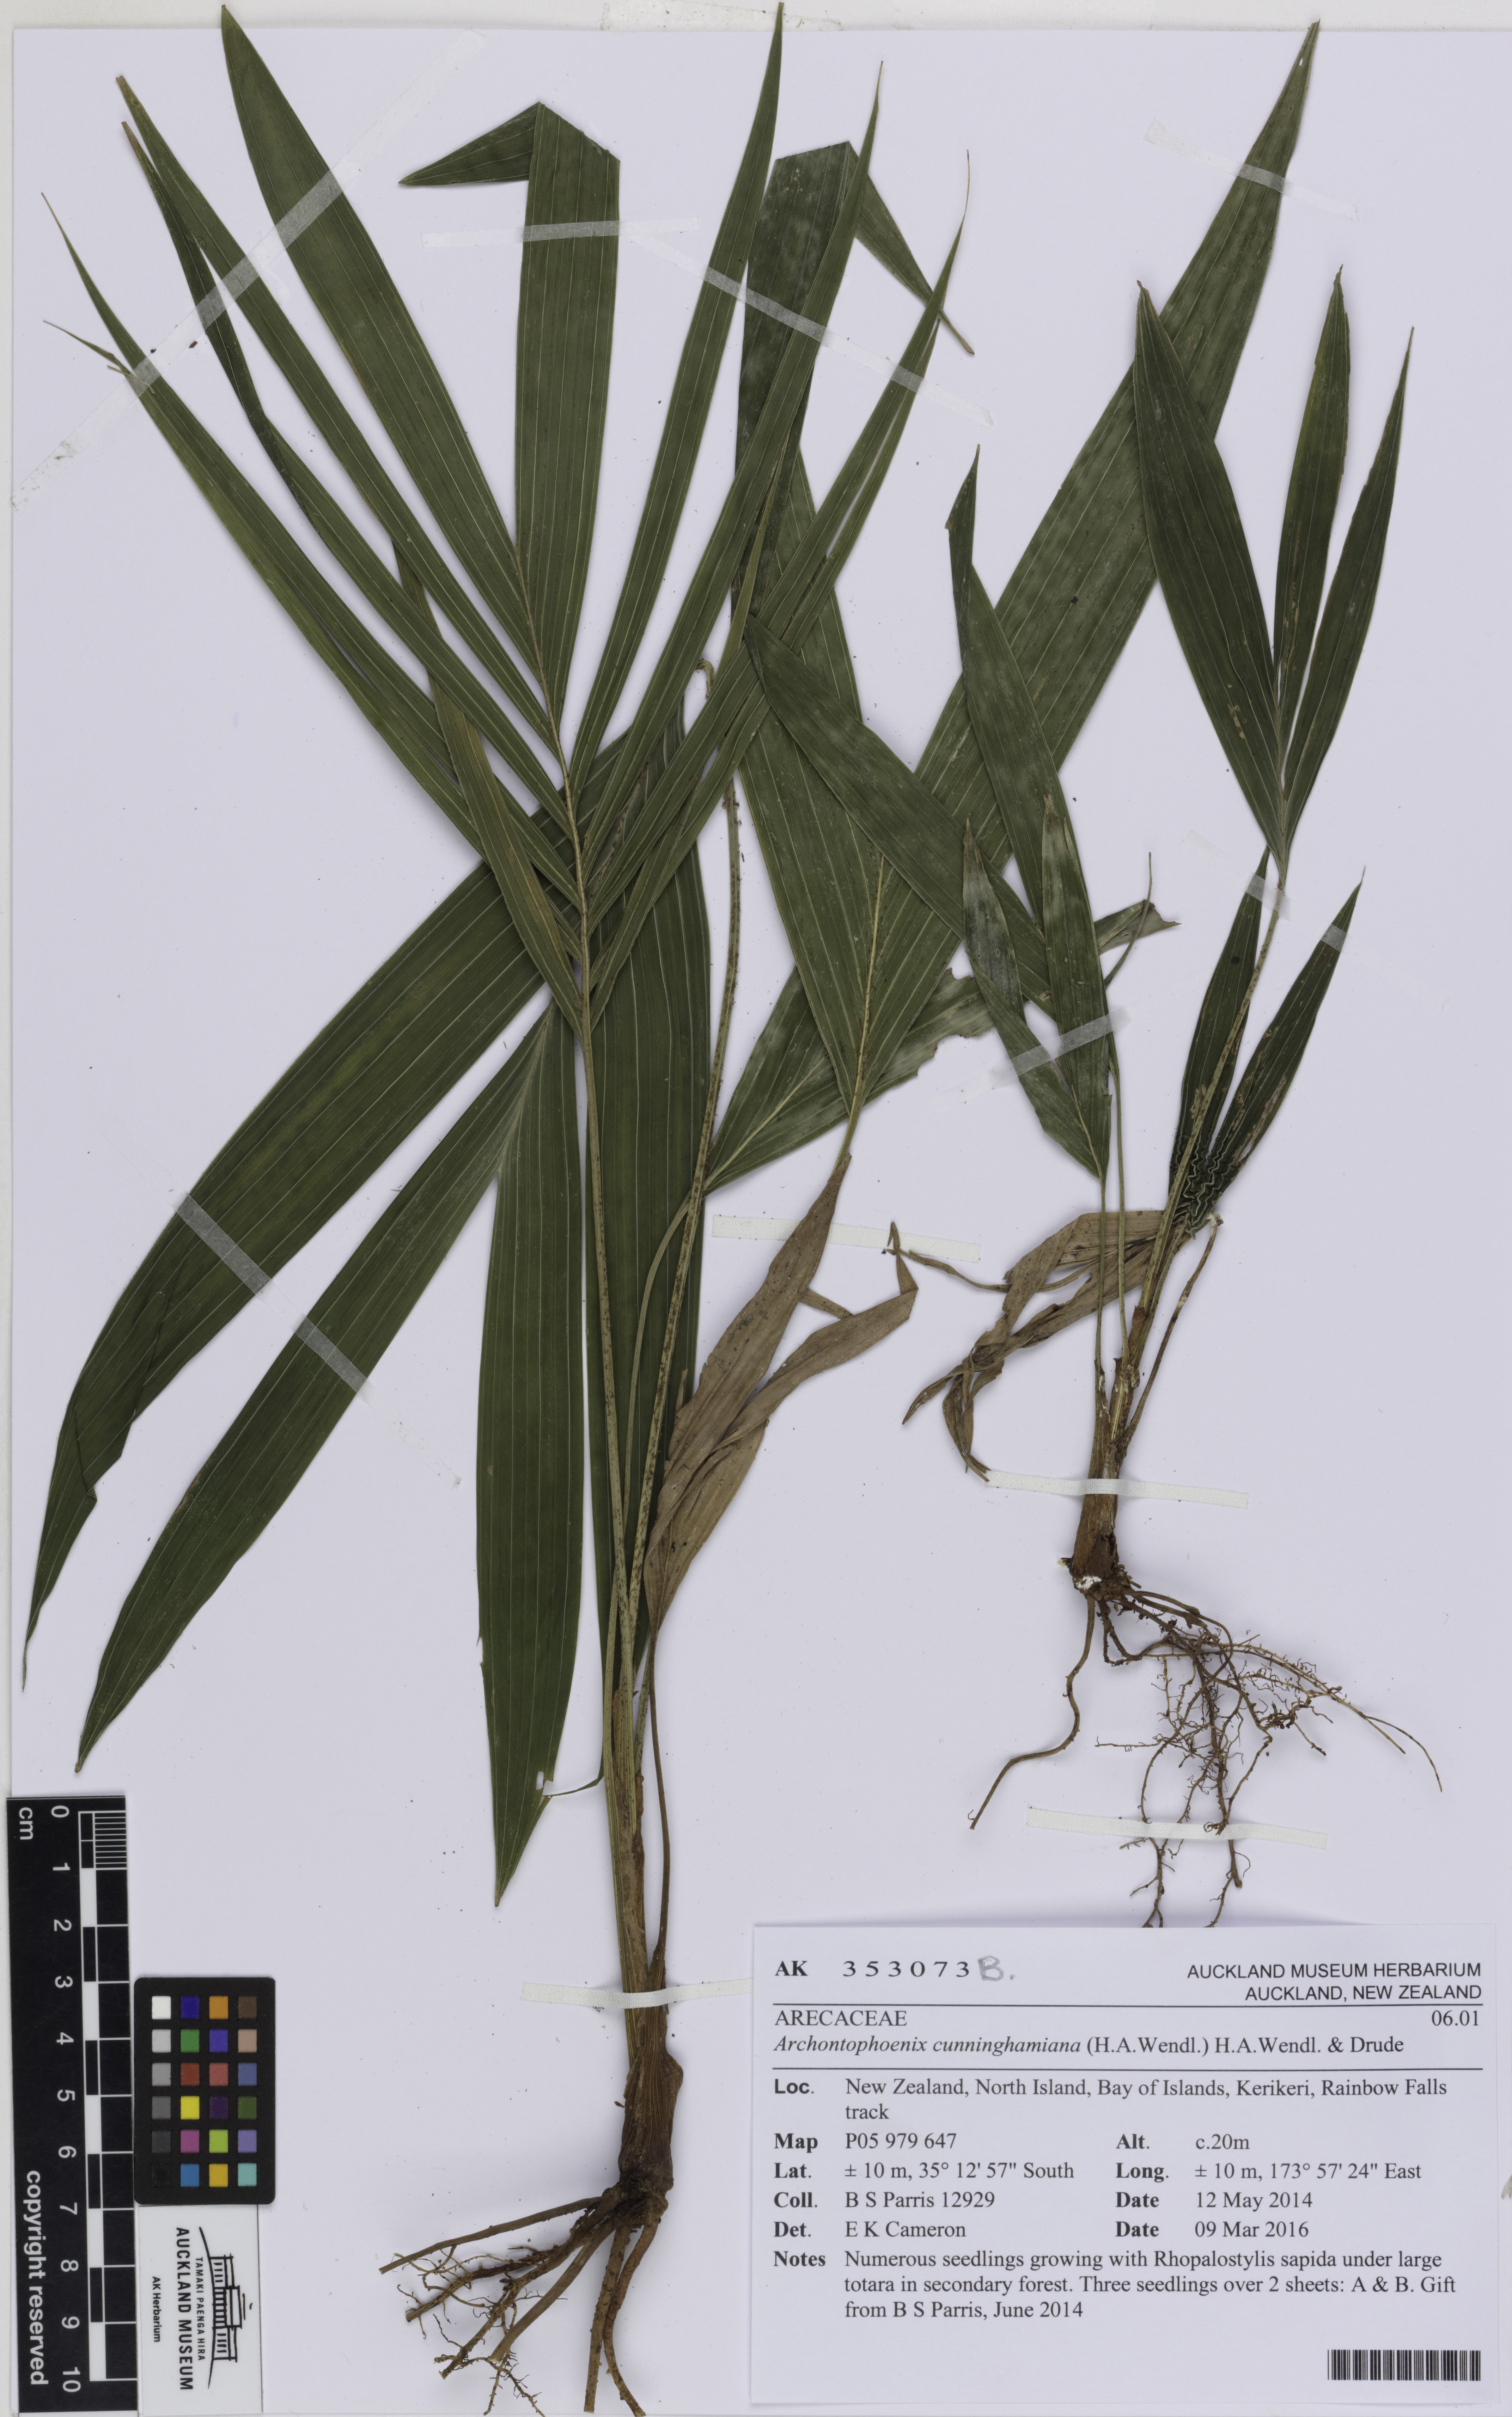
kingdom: Plantae
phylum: Tracheophyta
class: Liliopsida
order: Arecales
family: Arecaceae
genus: Archontophoenix
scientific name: Archontophoenix cunninghamiana
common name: Piccabeen bangalow palm
